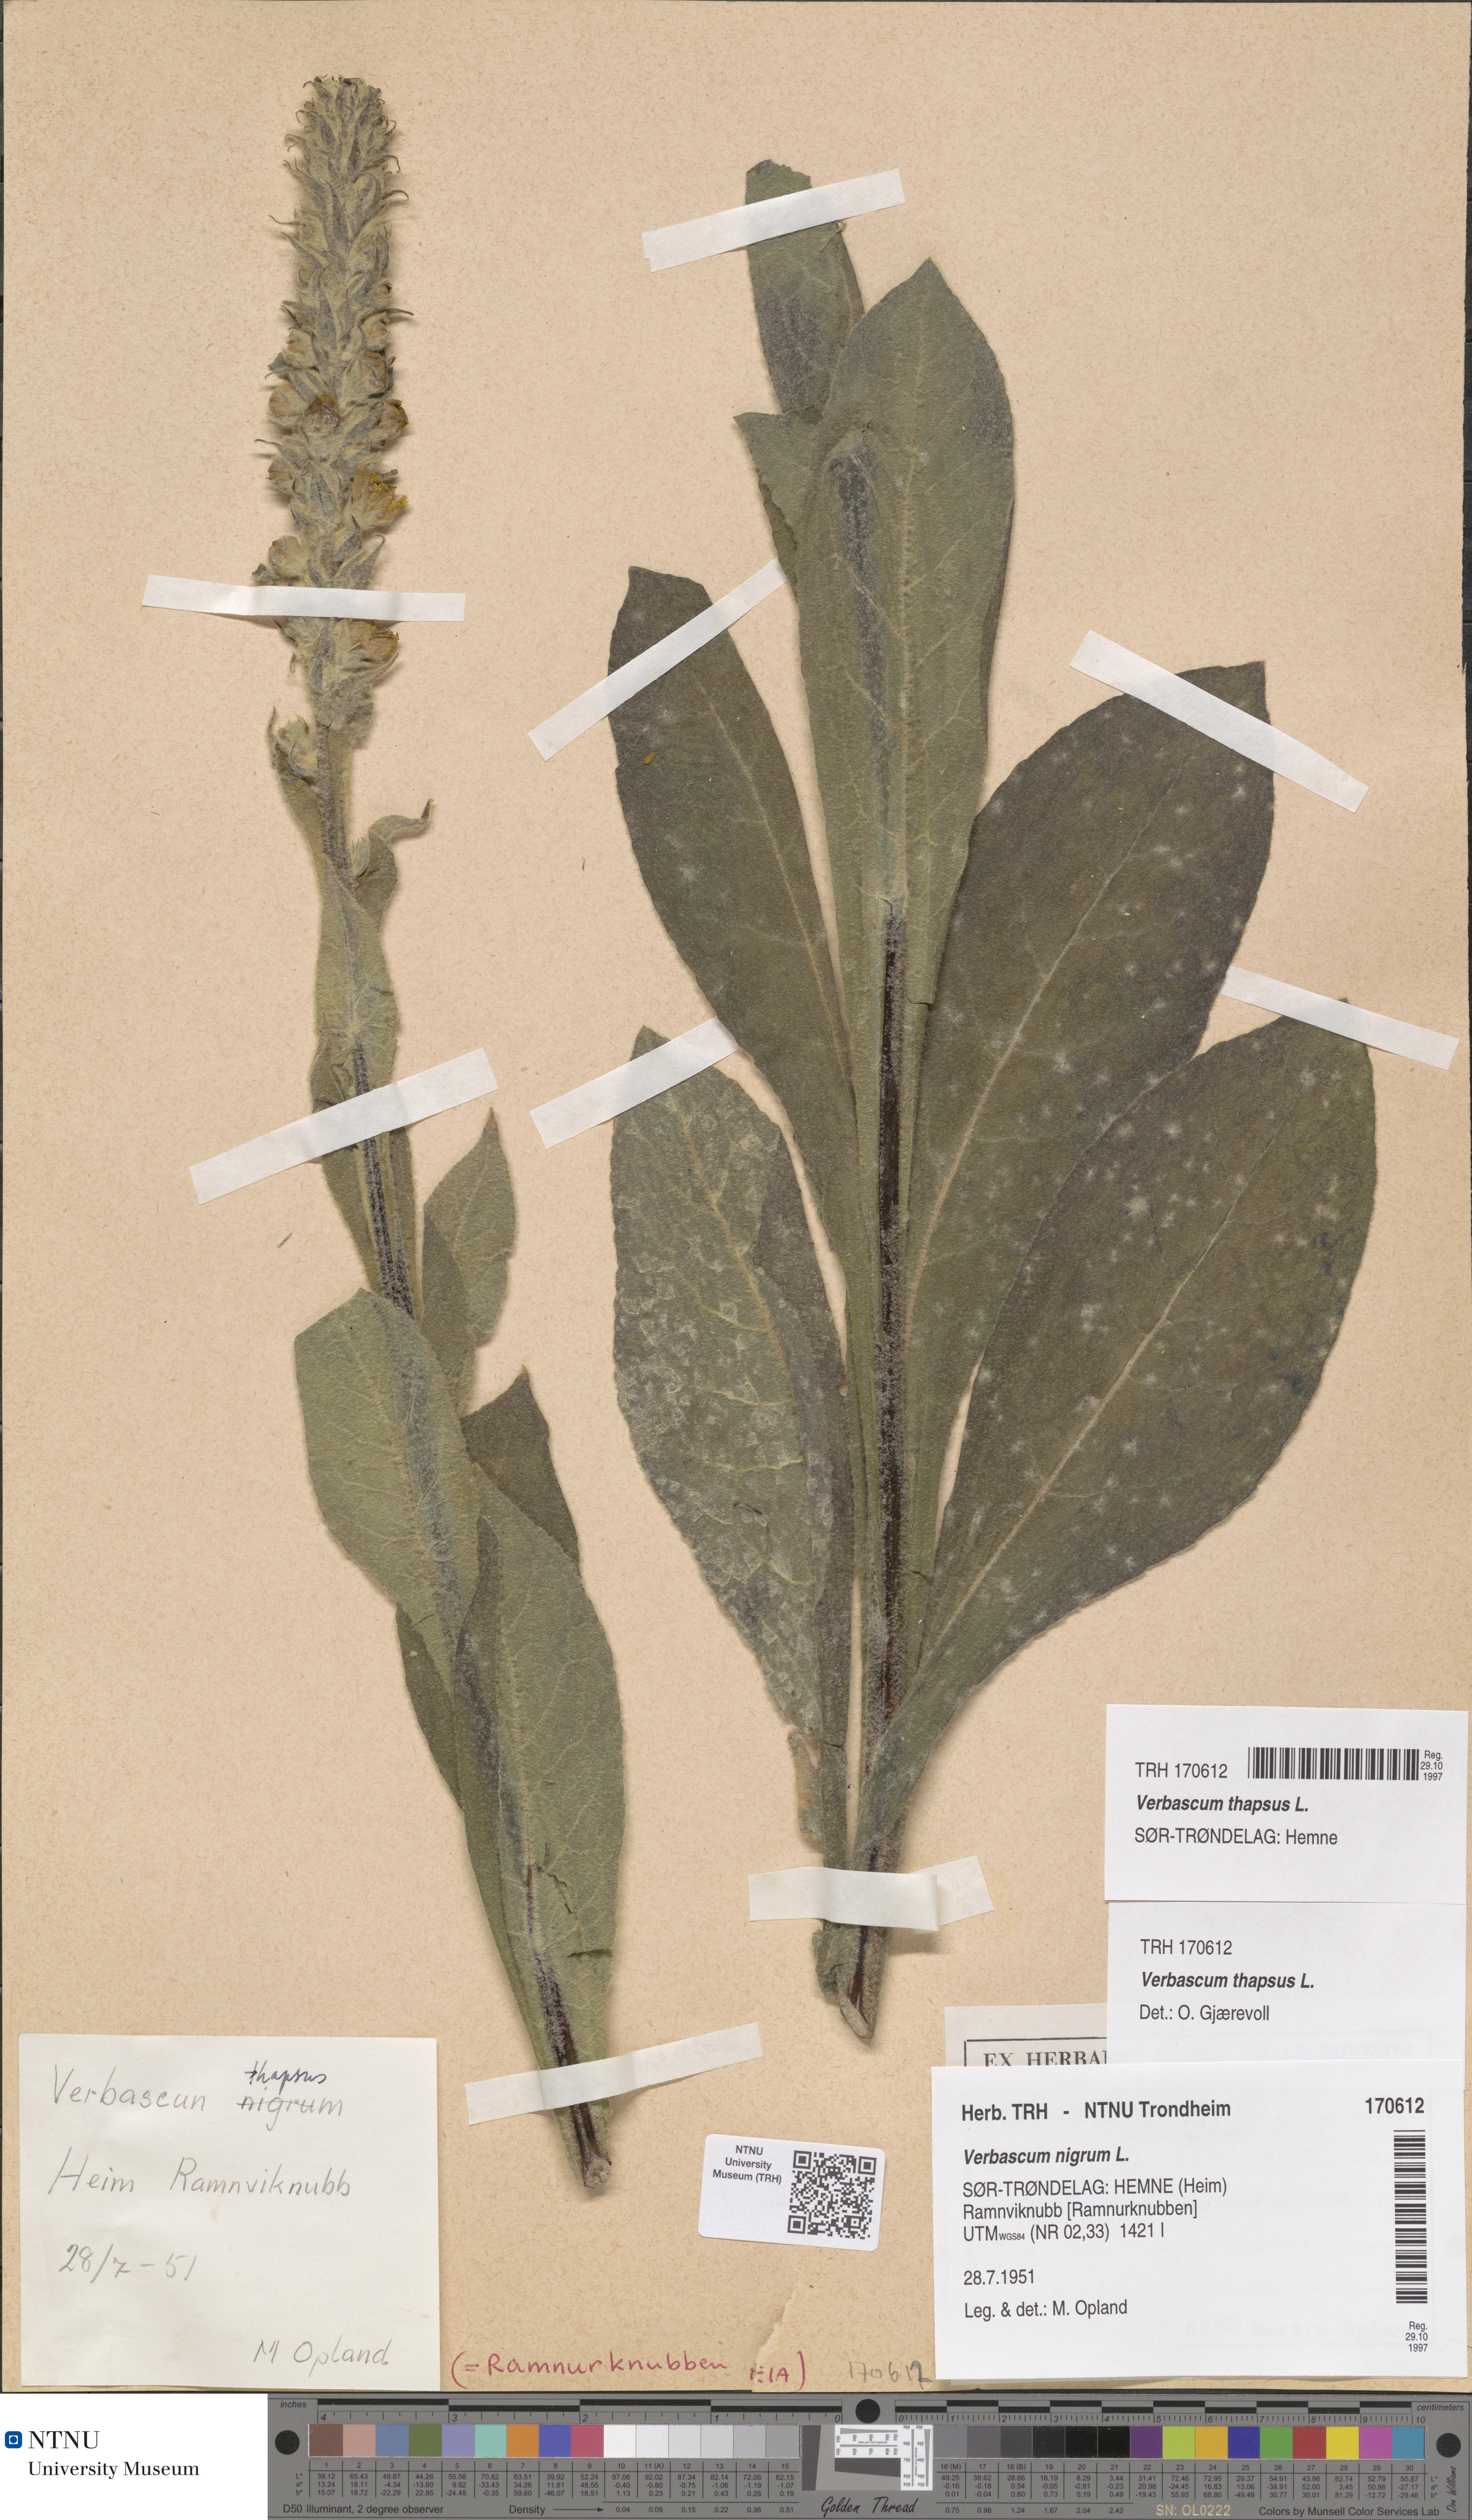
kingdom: Plantae
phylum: Tracheophyta
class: Magnoliopsida
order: Lamiales
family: Scrophulariaceae
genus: Verbascum
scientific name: Verbascum thapsus
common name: Common mullein
